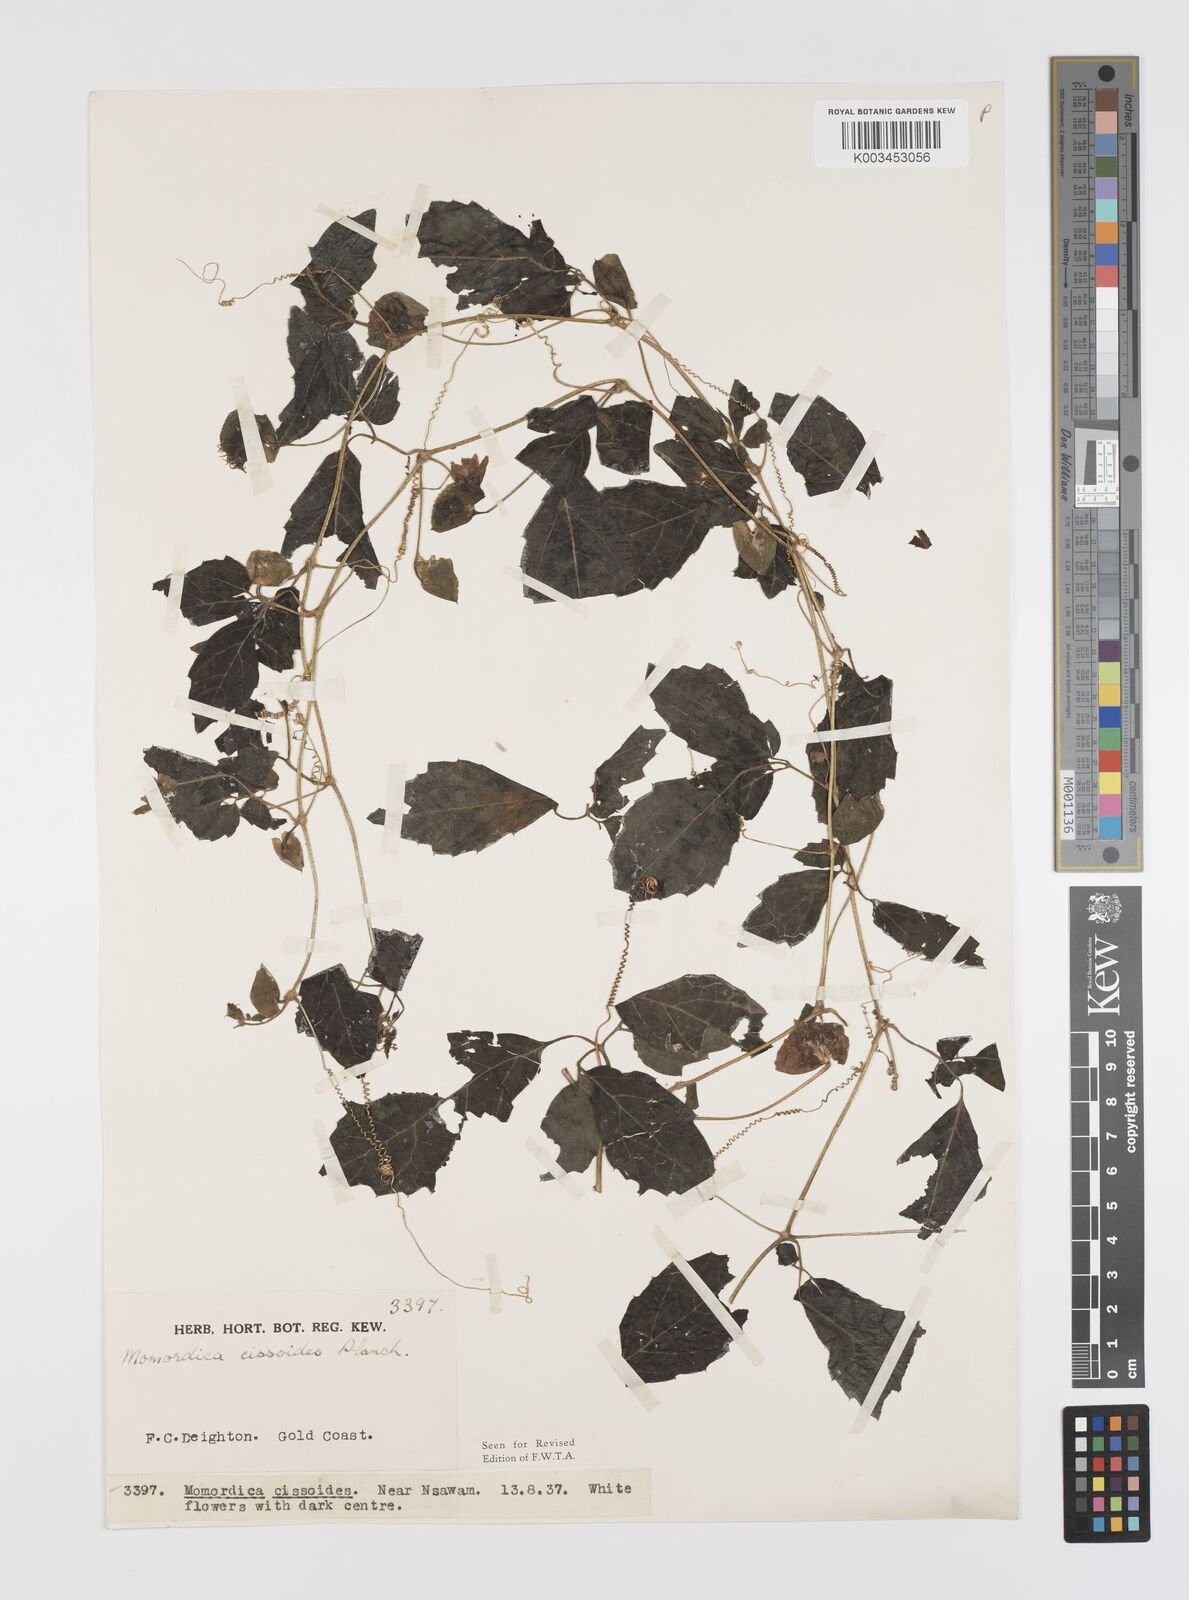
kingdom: Plantae
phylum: Tracheophyta
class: Magnoliopsida
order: Cucurbitales
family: Cucurbitaceae
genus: Momordica
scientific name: Momordica cissoides
